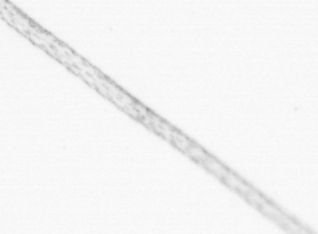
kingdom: Animalia
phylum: Arthropoda
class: Copepoda
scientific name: Copepoda
